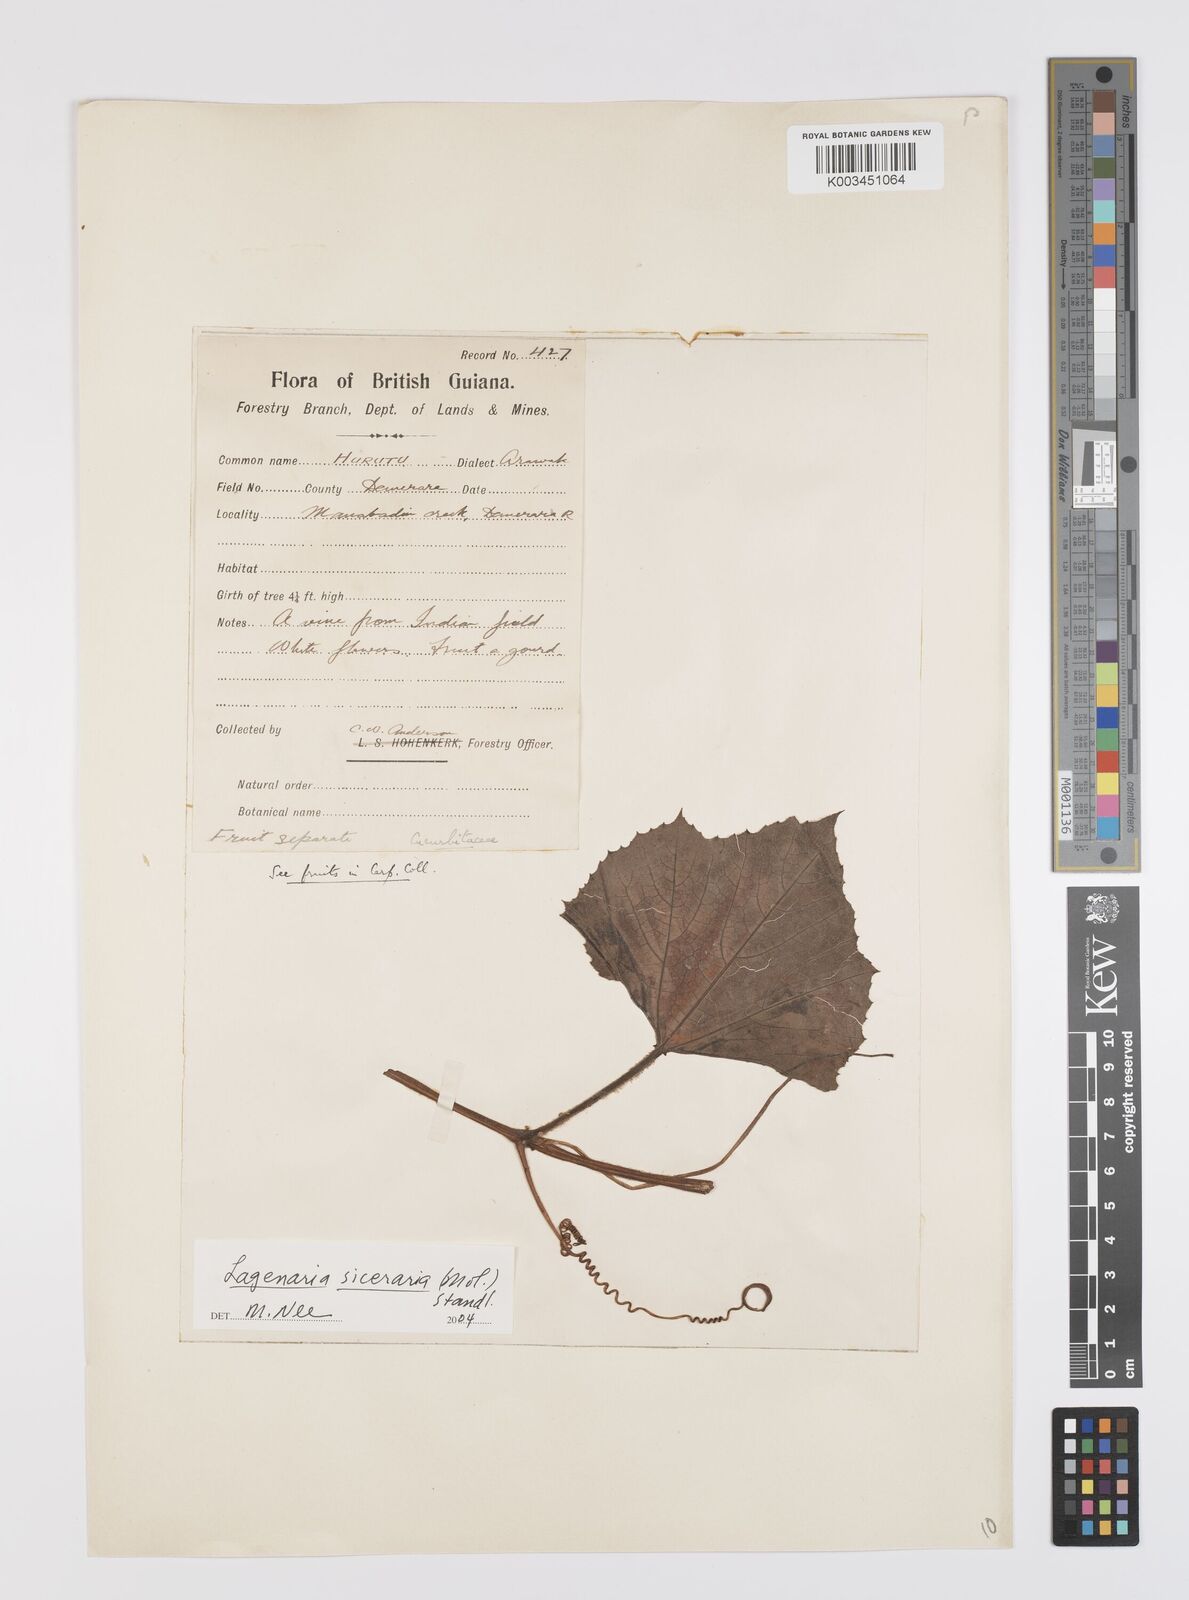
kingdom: Plantae
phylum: Tracheophyta
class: Magnoliopsida
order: Cucurbitales
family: Cucurbitaceae
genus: Lagenaria
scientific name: Lagenaria siceraria
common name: Bottle gourd
